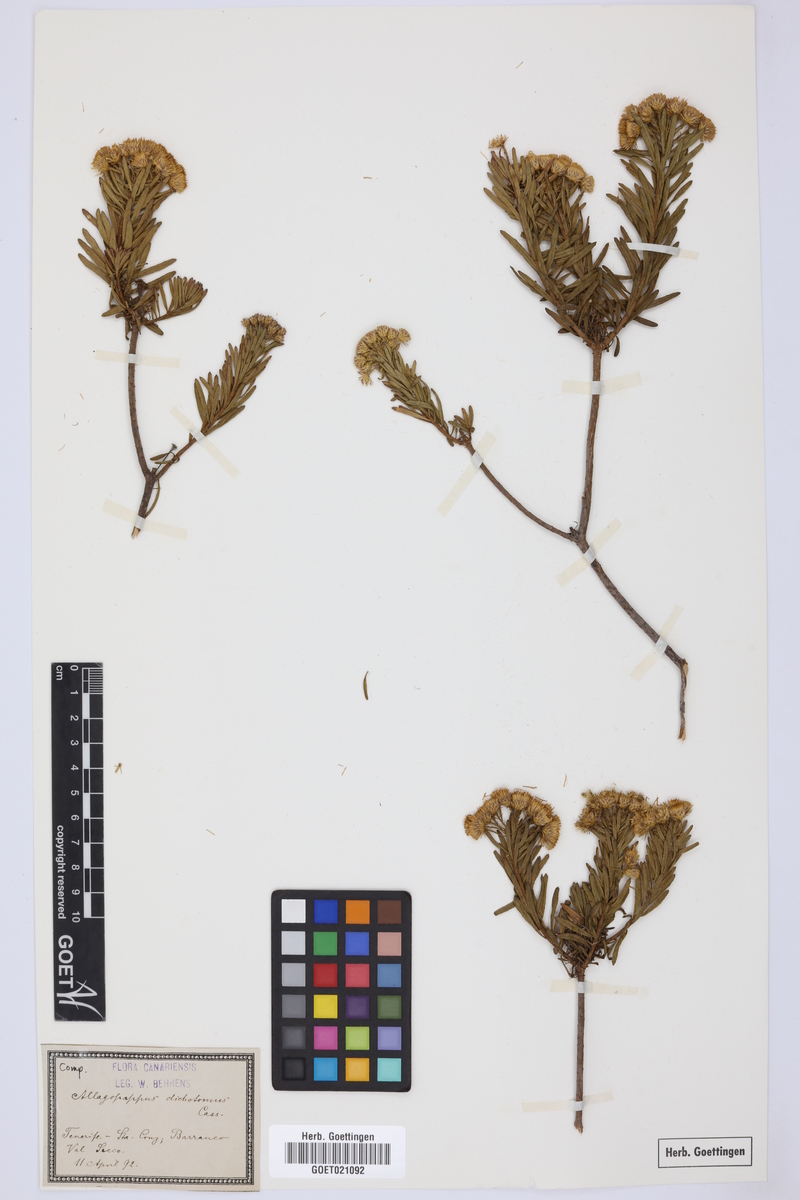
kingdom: Plantae
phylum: Tracheophyta
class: Magnoliopsida
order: Asterales
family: Asteraceae
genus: Allagopappus
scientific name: Allagopappus canariensis
